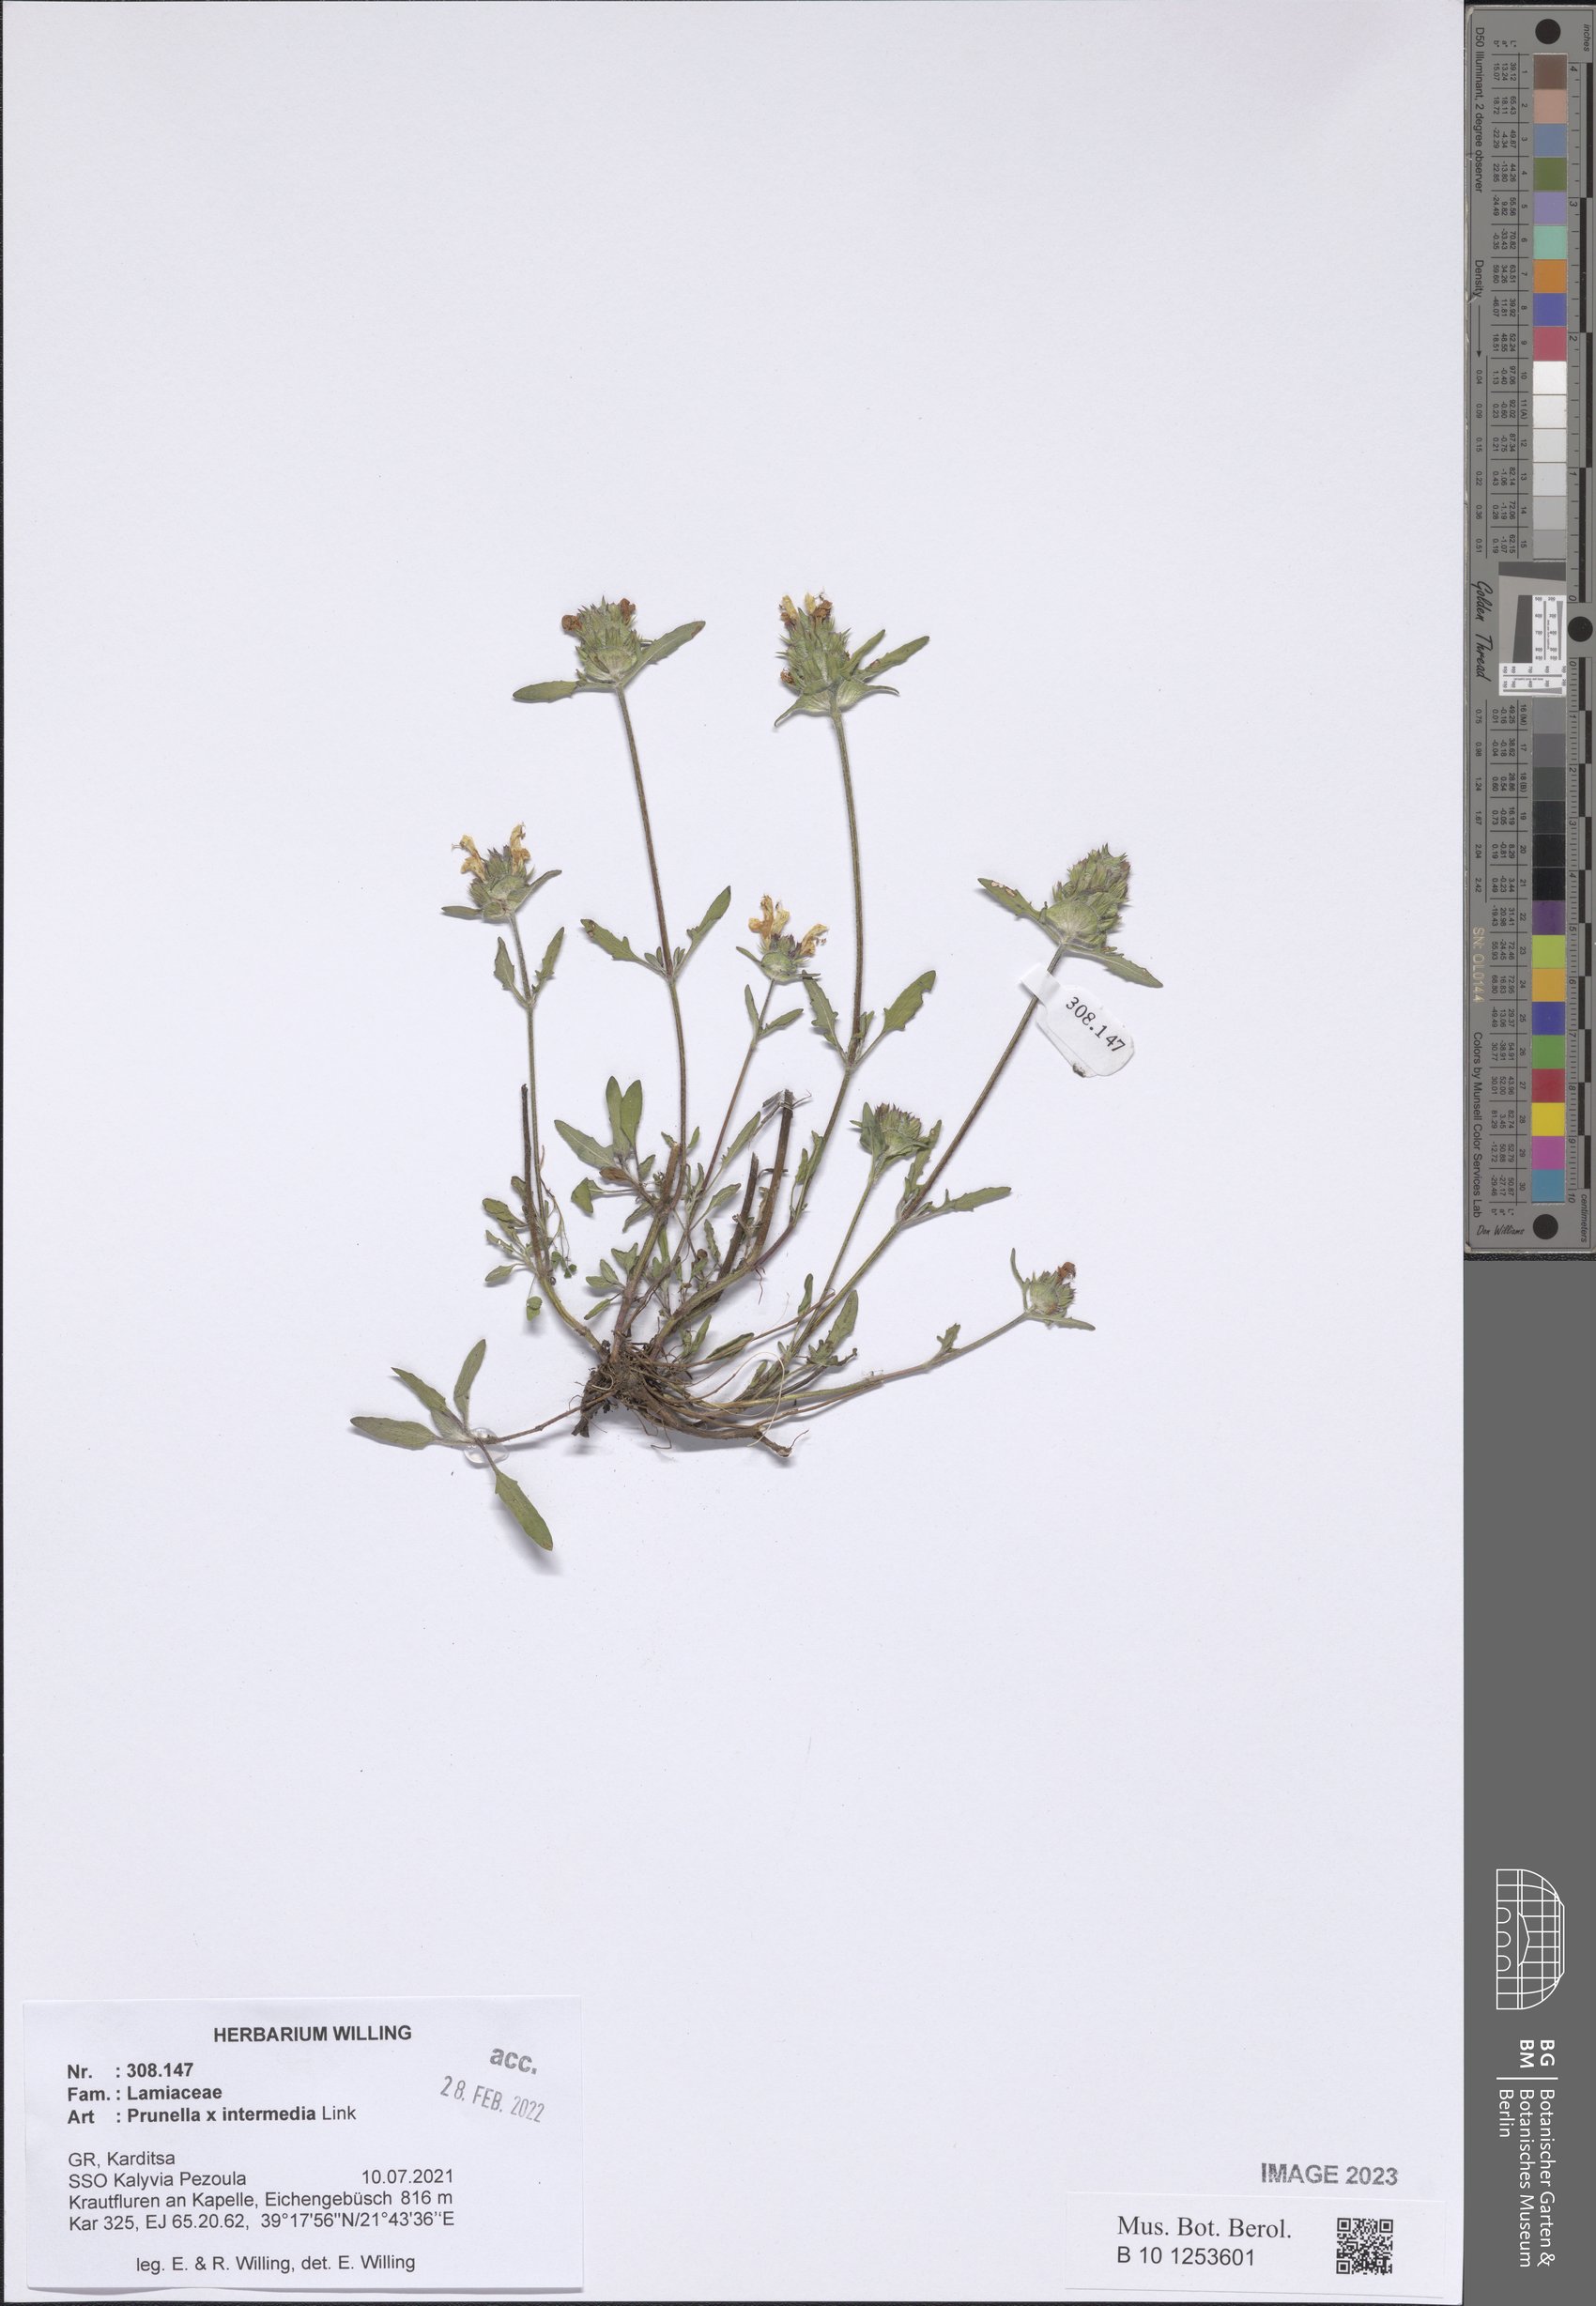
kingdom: Plantae
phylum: Tracheophyta
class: Magnoliopsida
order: Lamiales
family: Lamiaceae
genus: Prunella
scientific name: Prunella
